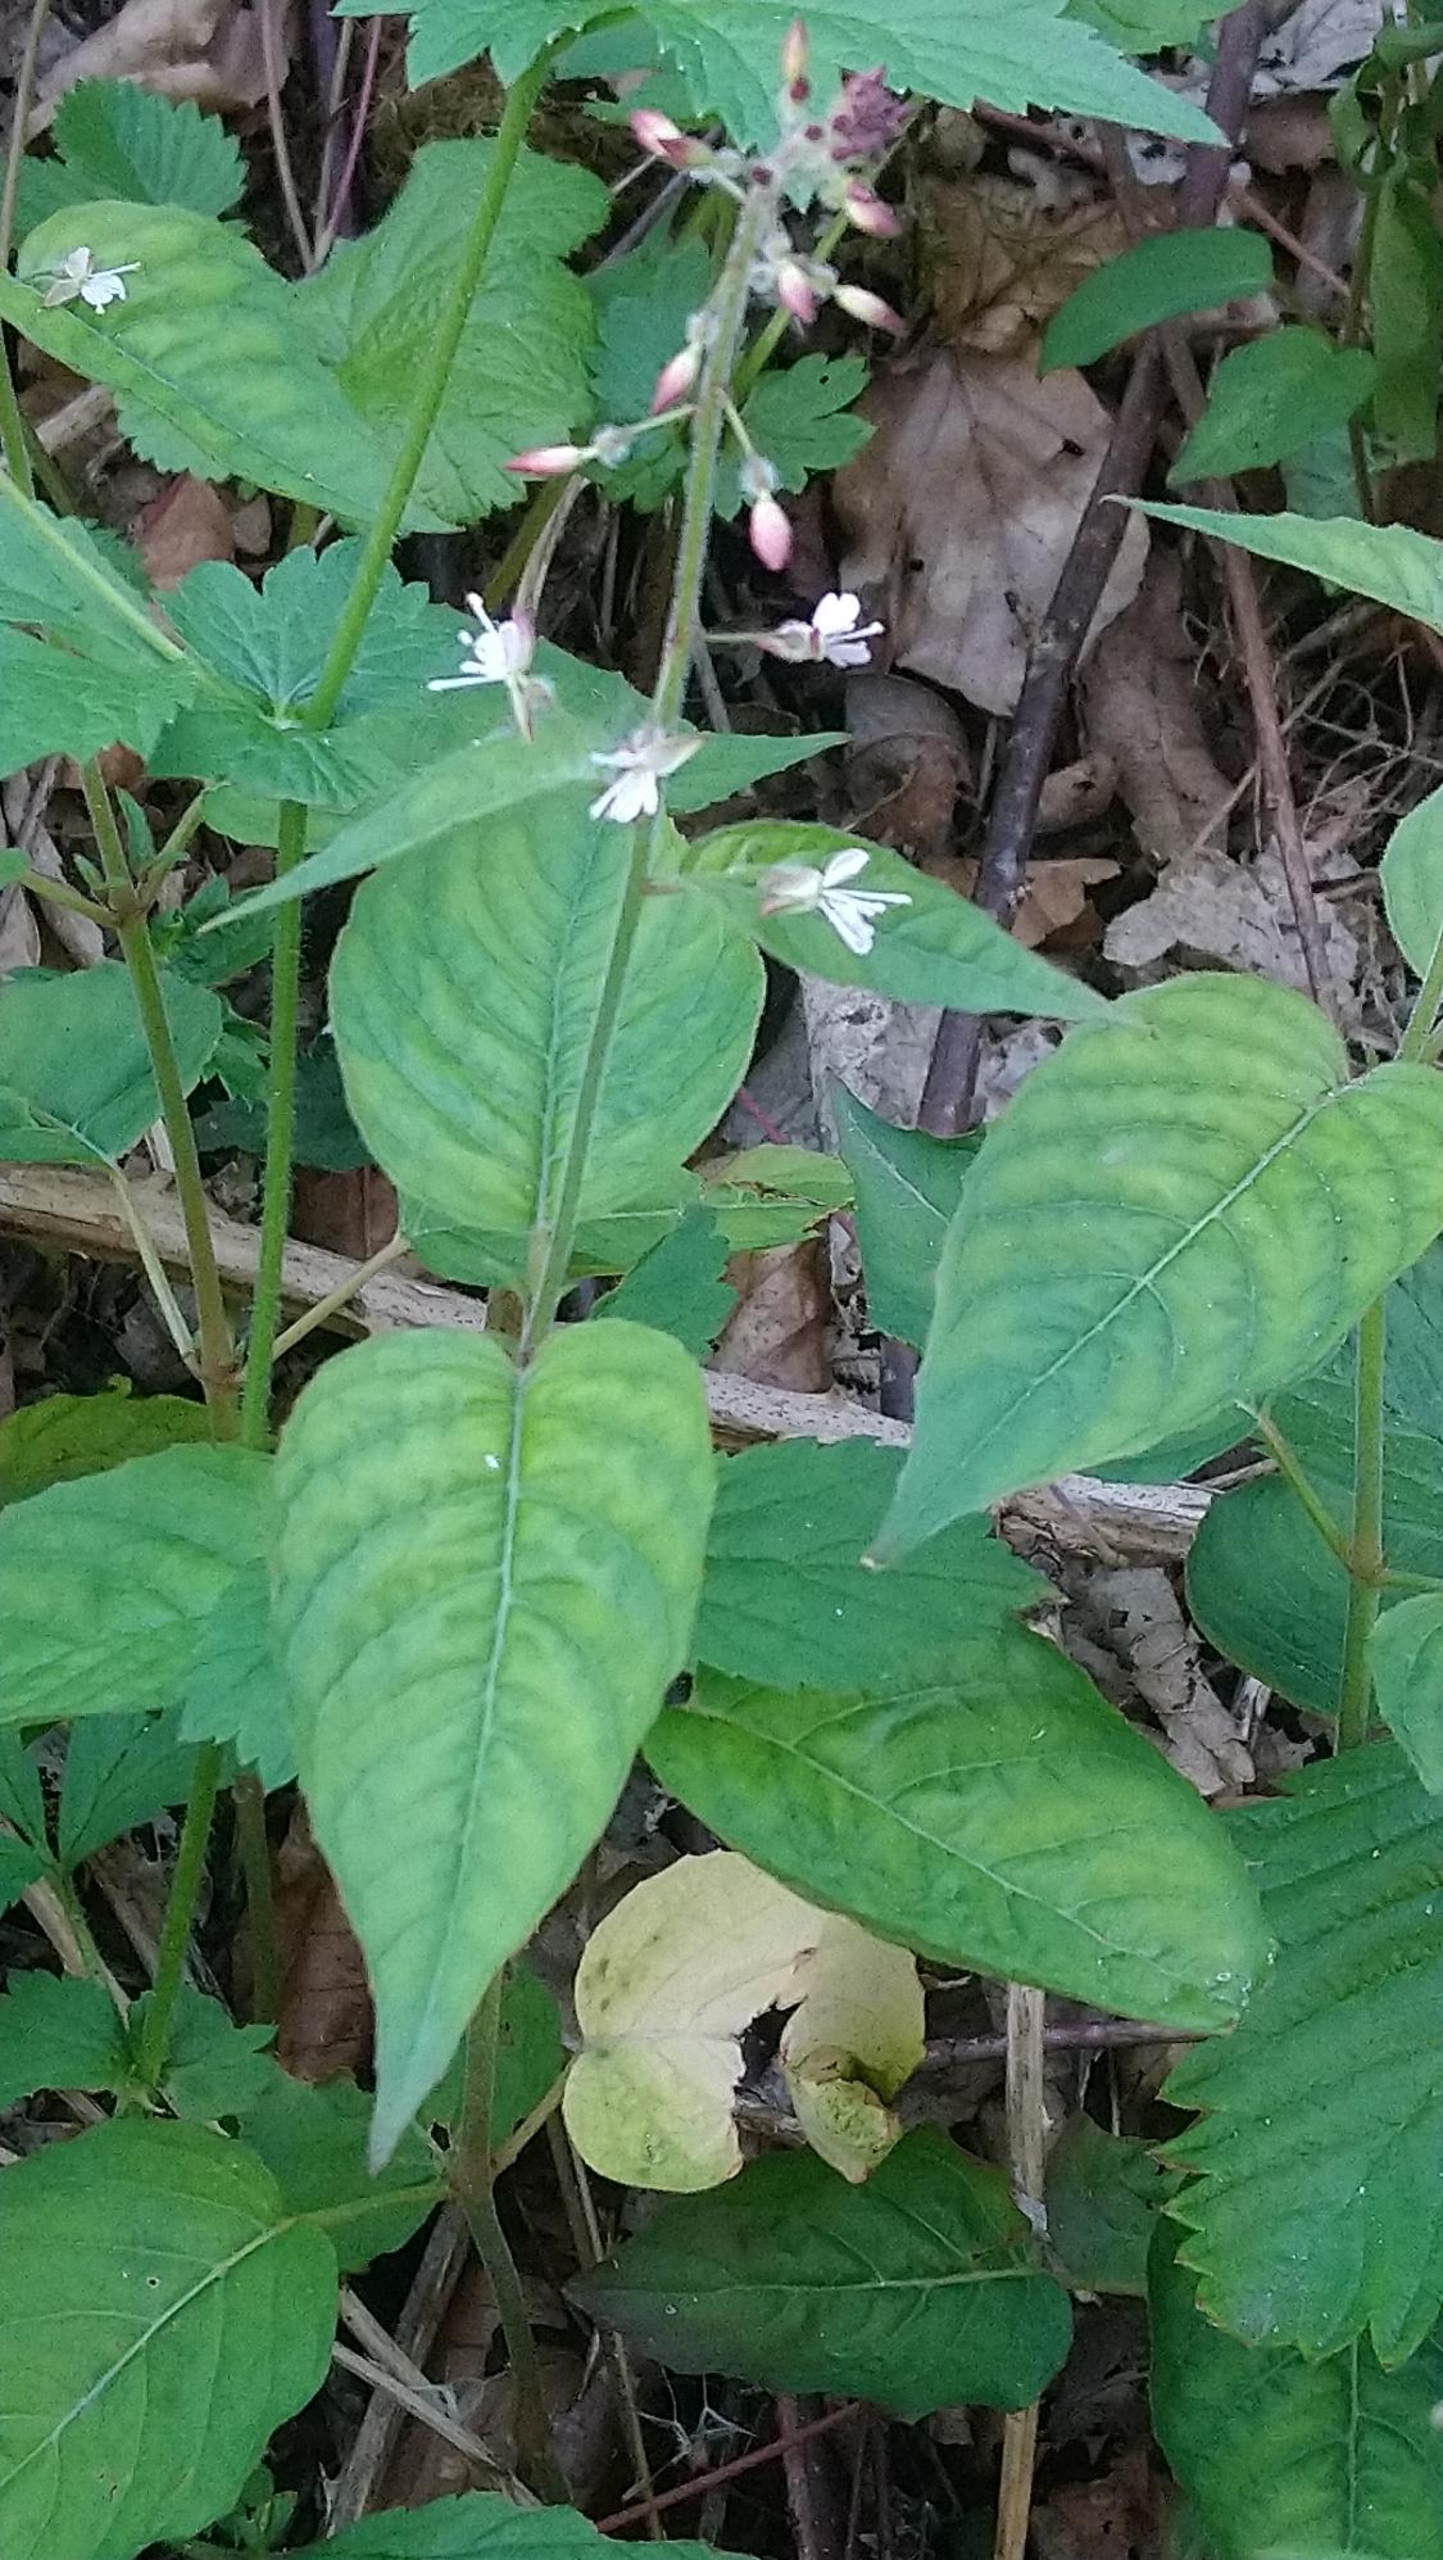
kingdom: Plantae
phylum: Tracheophyta
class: Magnoliopsida
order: Myrtales
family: Onagraceae
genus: Circaea
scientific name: Circaea lutetiana
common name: Dunet steffensurt
